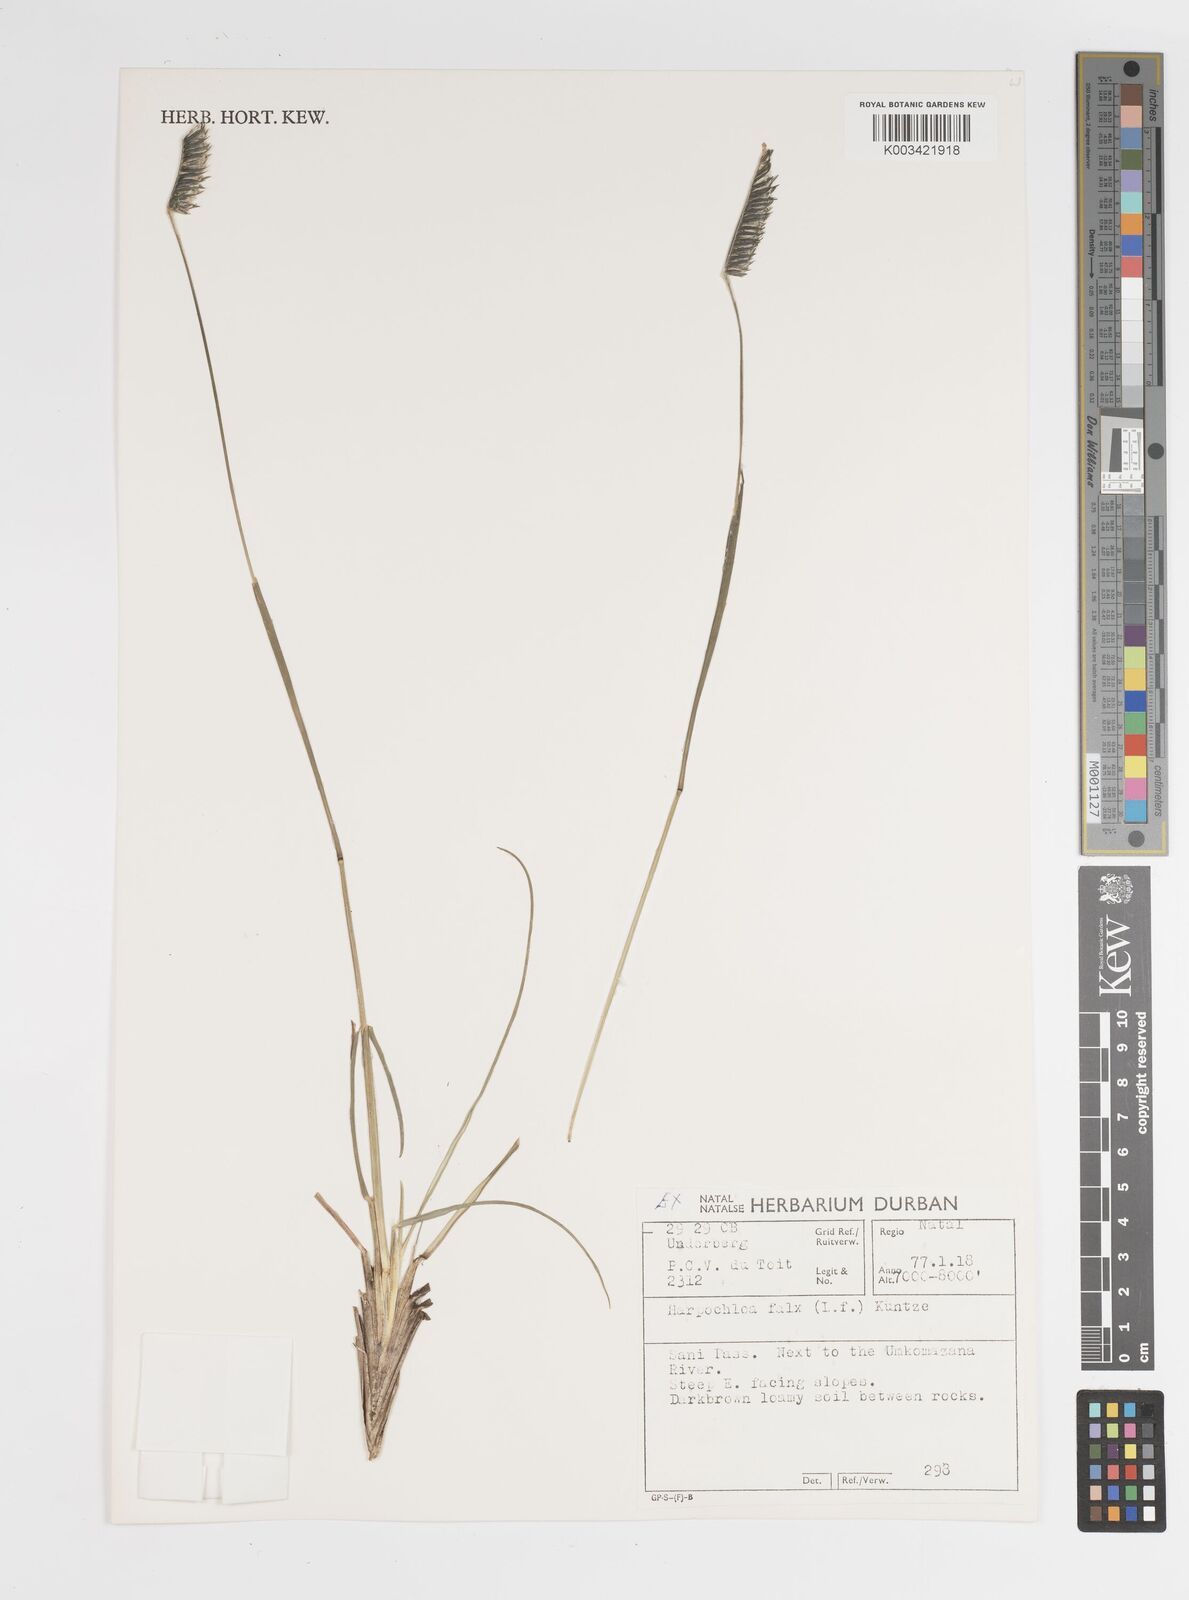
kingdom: Plantae
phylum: Tracheophyta
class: Liliopsida
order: Poales
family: Poaceae
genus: Harpochloa
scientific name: Harpochloa falx
